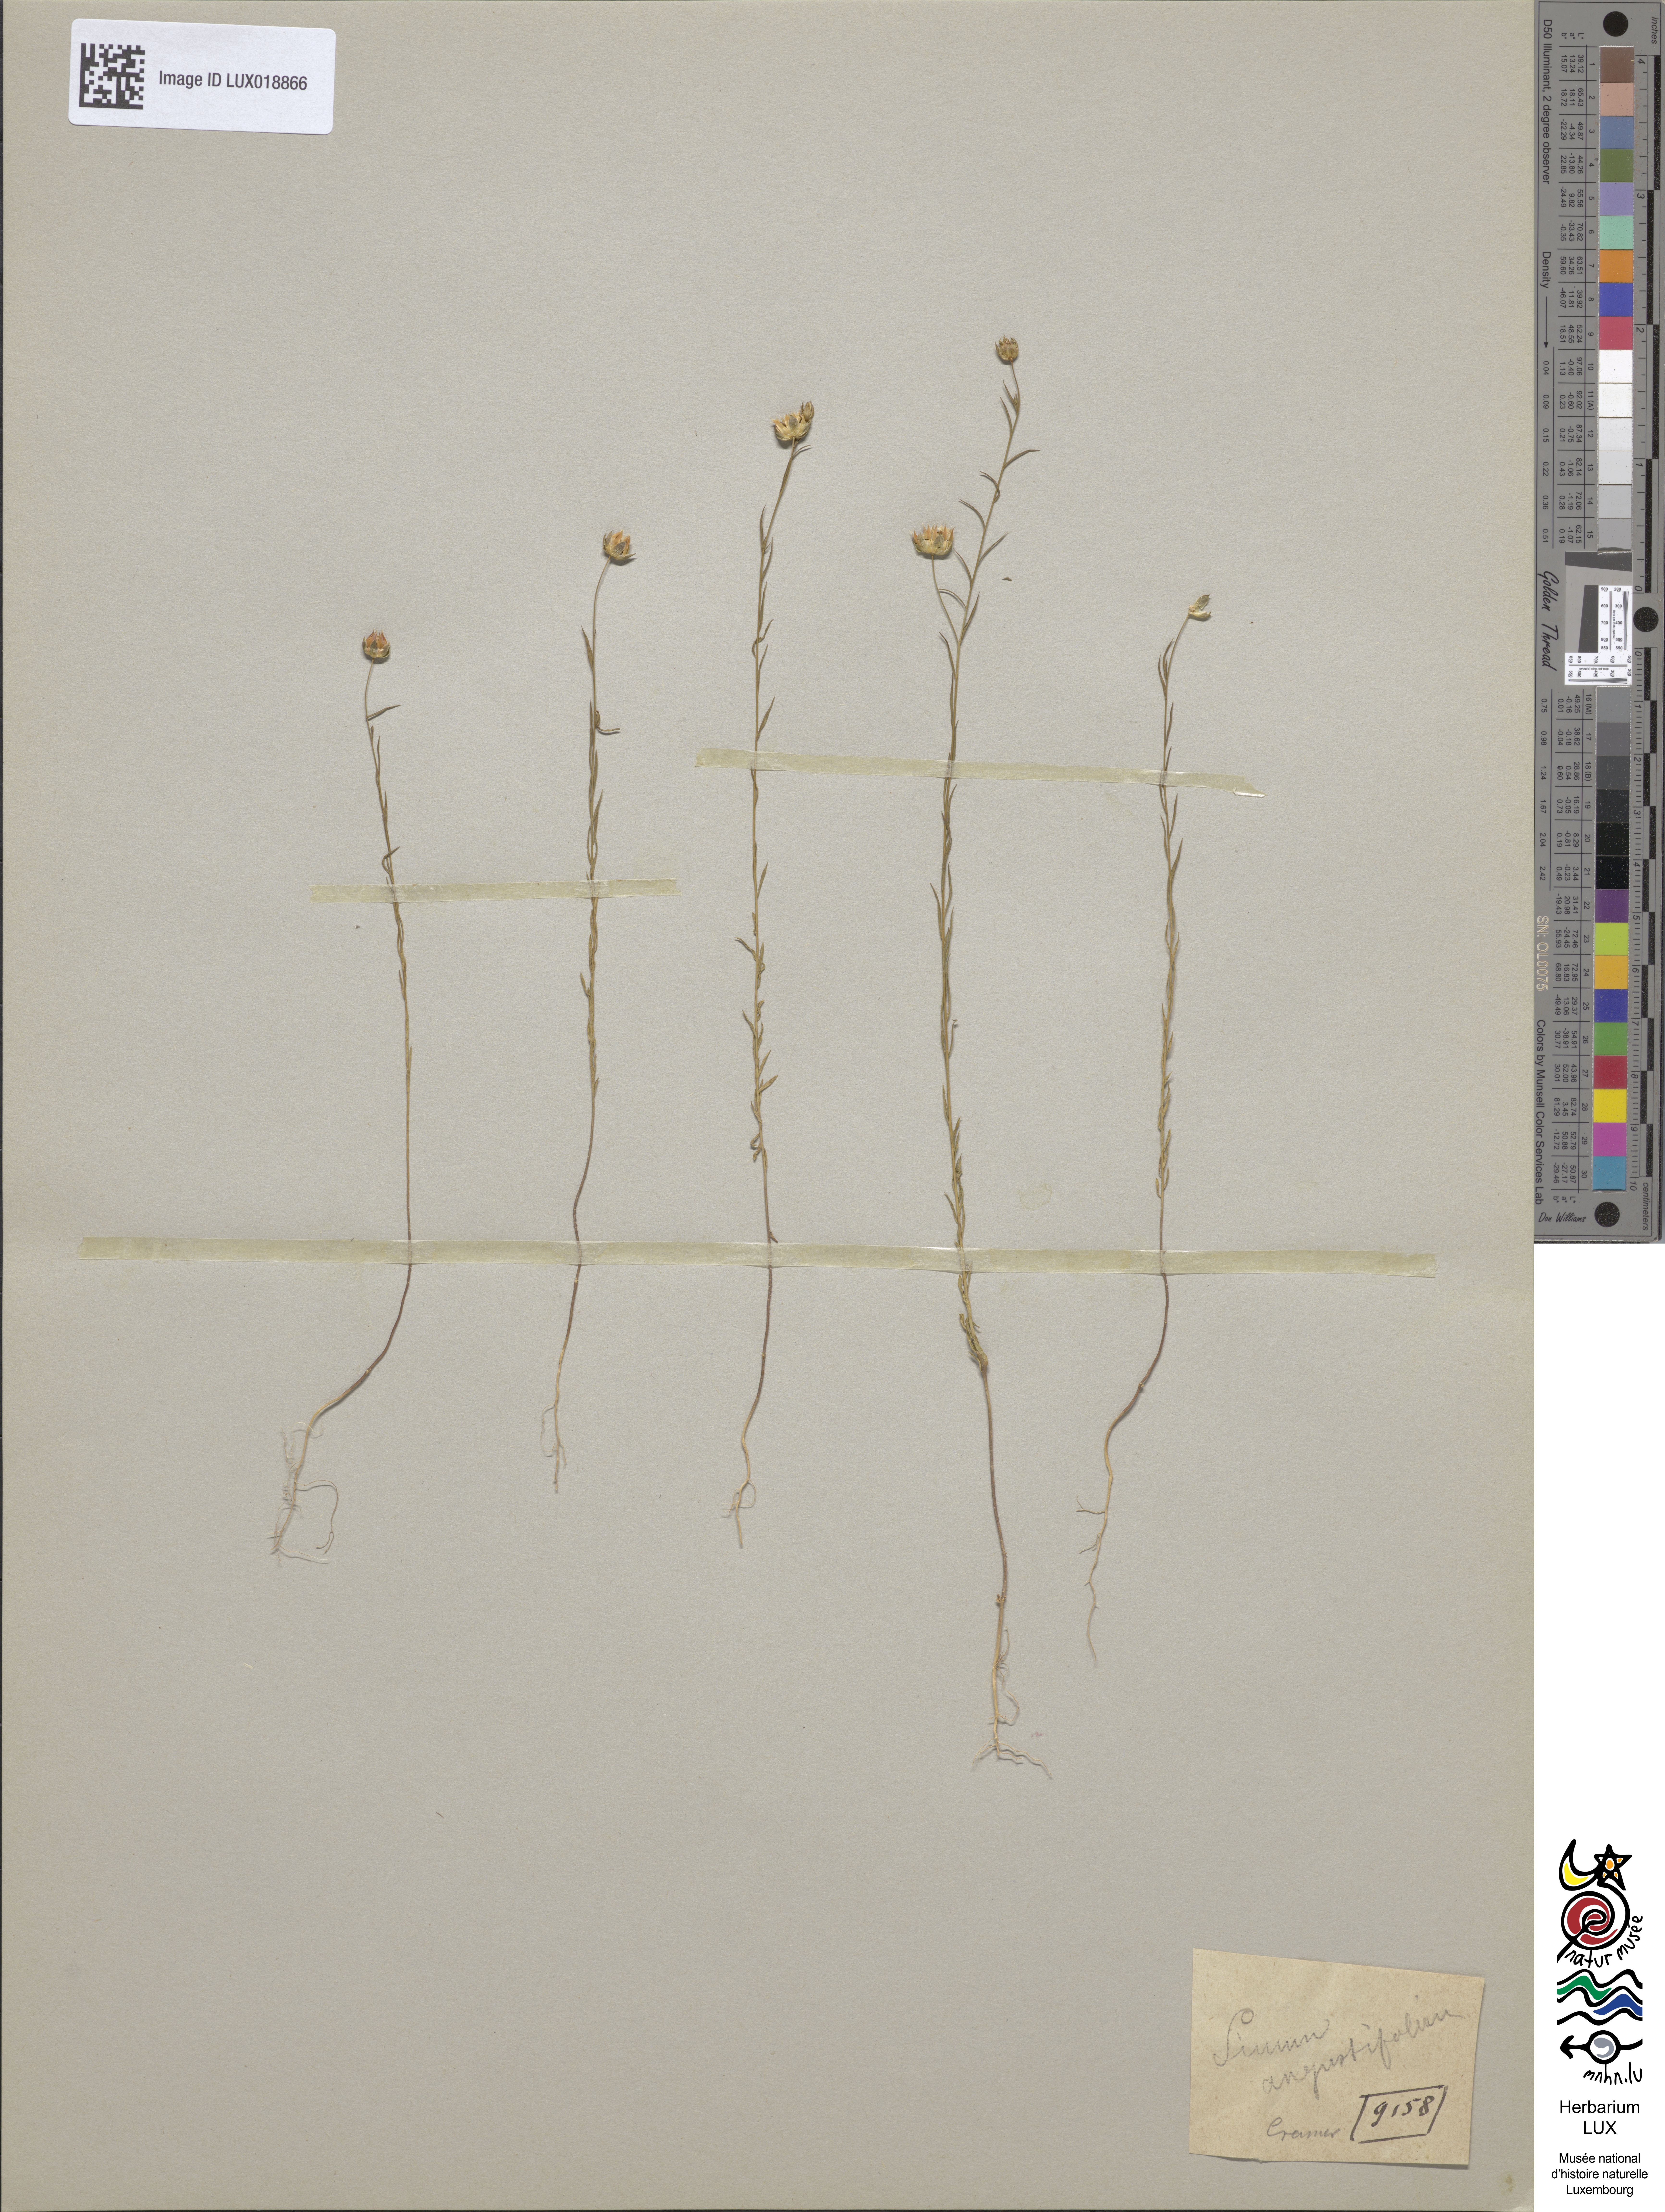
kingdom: Plantae
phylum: Tracheophyta
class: Magnoliopsida
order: Malpighiales
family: Linaceae
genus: Linum
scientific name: Linum bienne
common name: Pale flax
